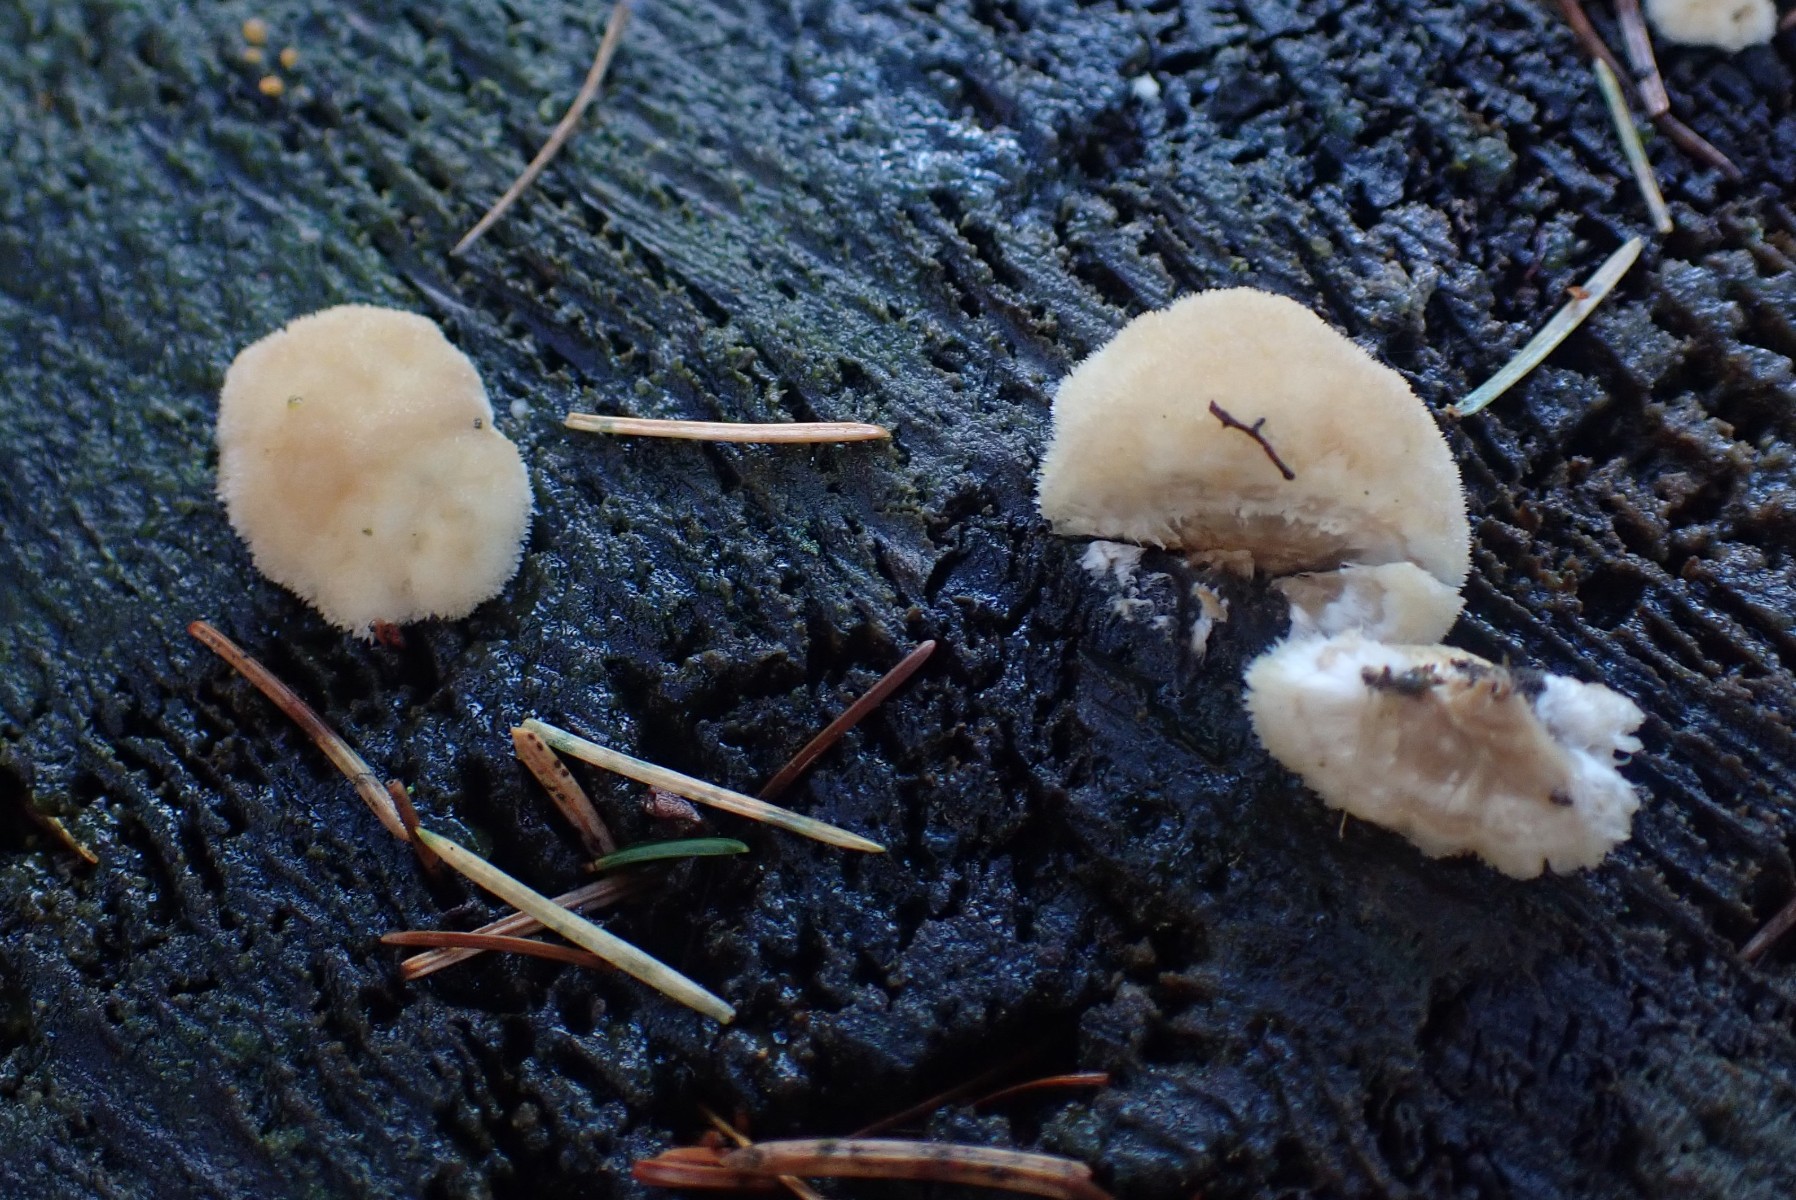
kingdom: Fungi
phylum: Basidiomycota
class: Agaricomycetes
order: Polyporales
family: Dacryobolaceae
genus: Postia
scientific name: Postia ptychogaster
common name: støvende kødporesvamp
